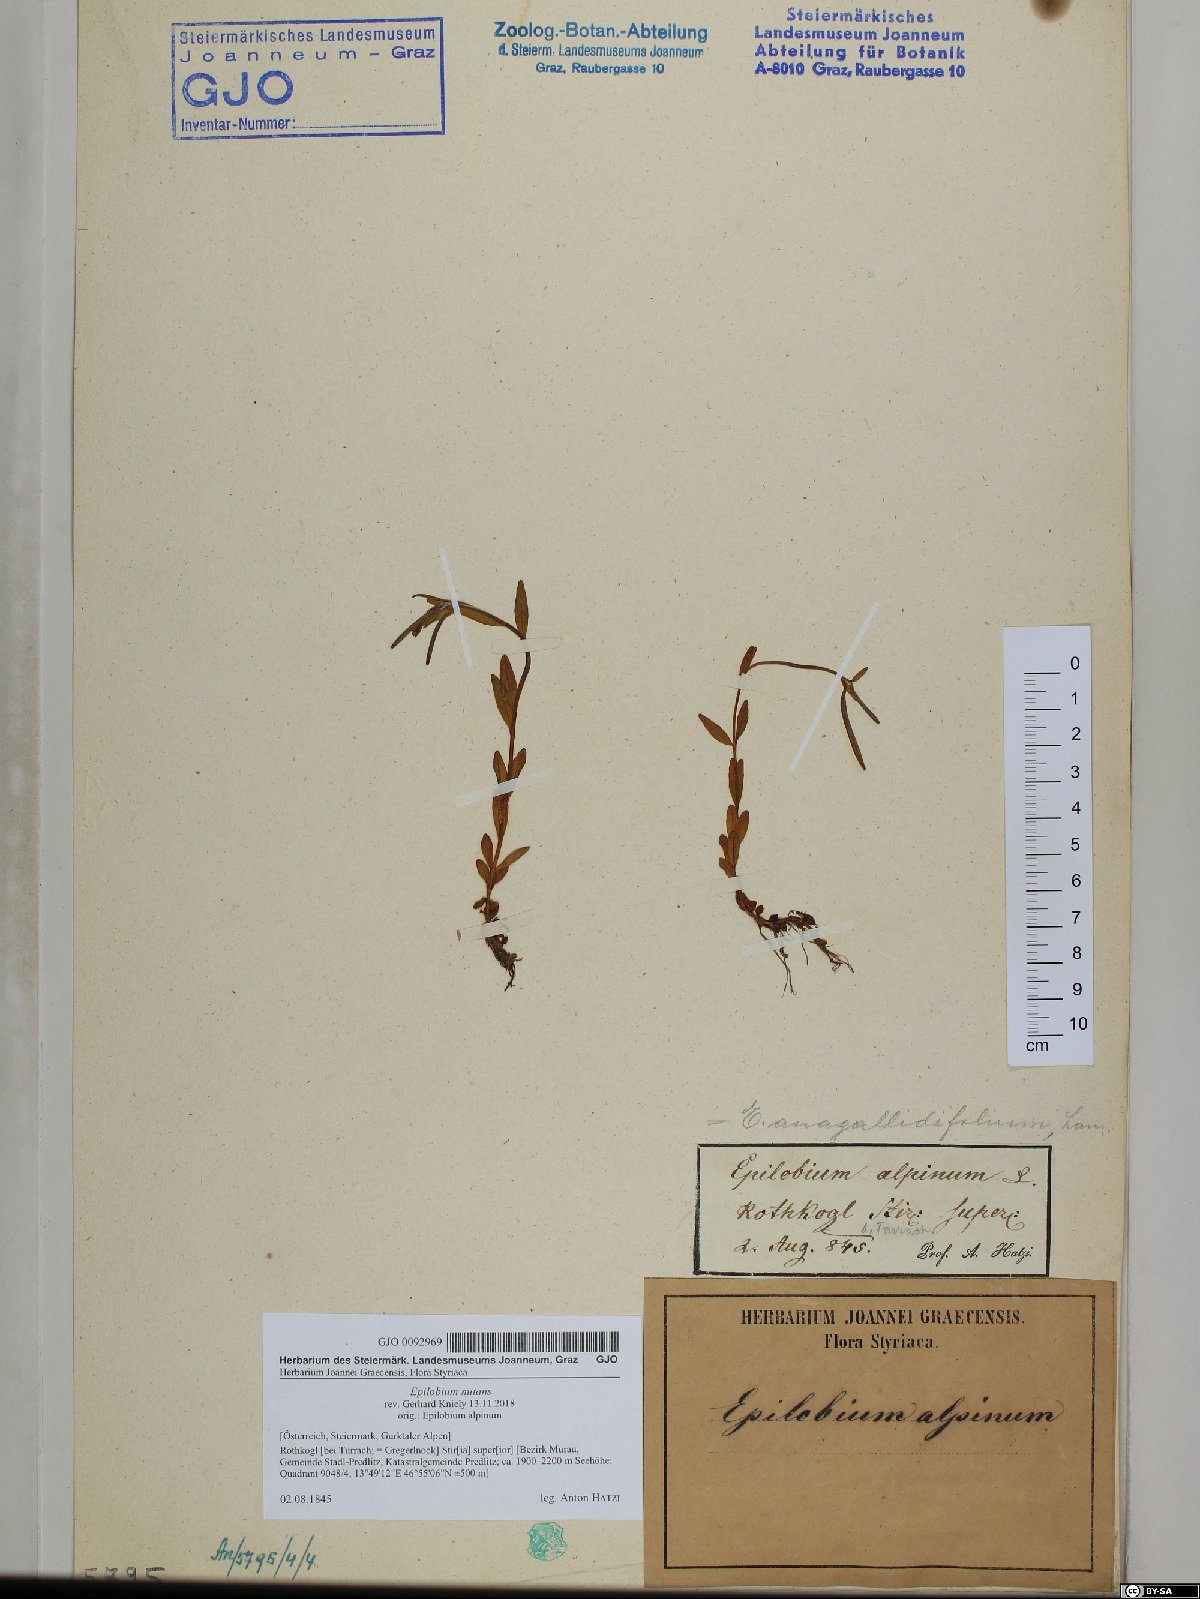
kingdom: Plantae
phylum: Tracheophyta
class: Magnoliopsida
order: Myrtales
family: Onagraceae
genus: Epilobium
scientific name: Epilobium nutans
